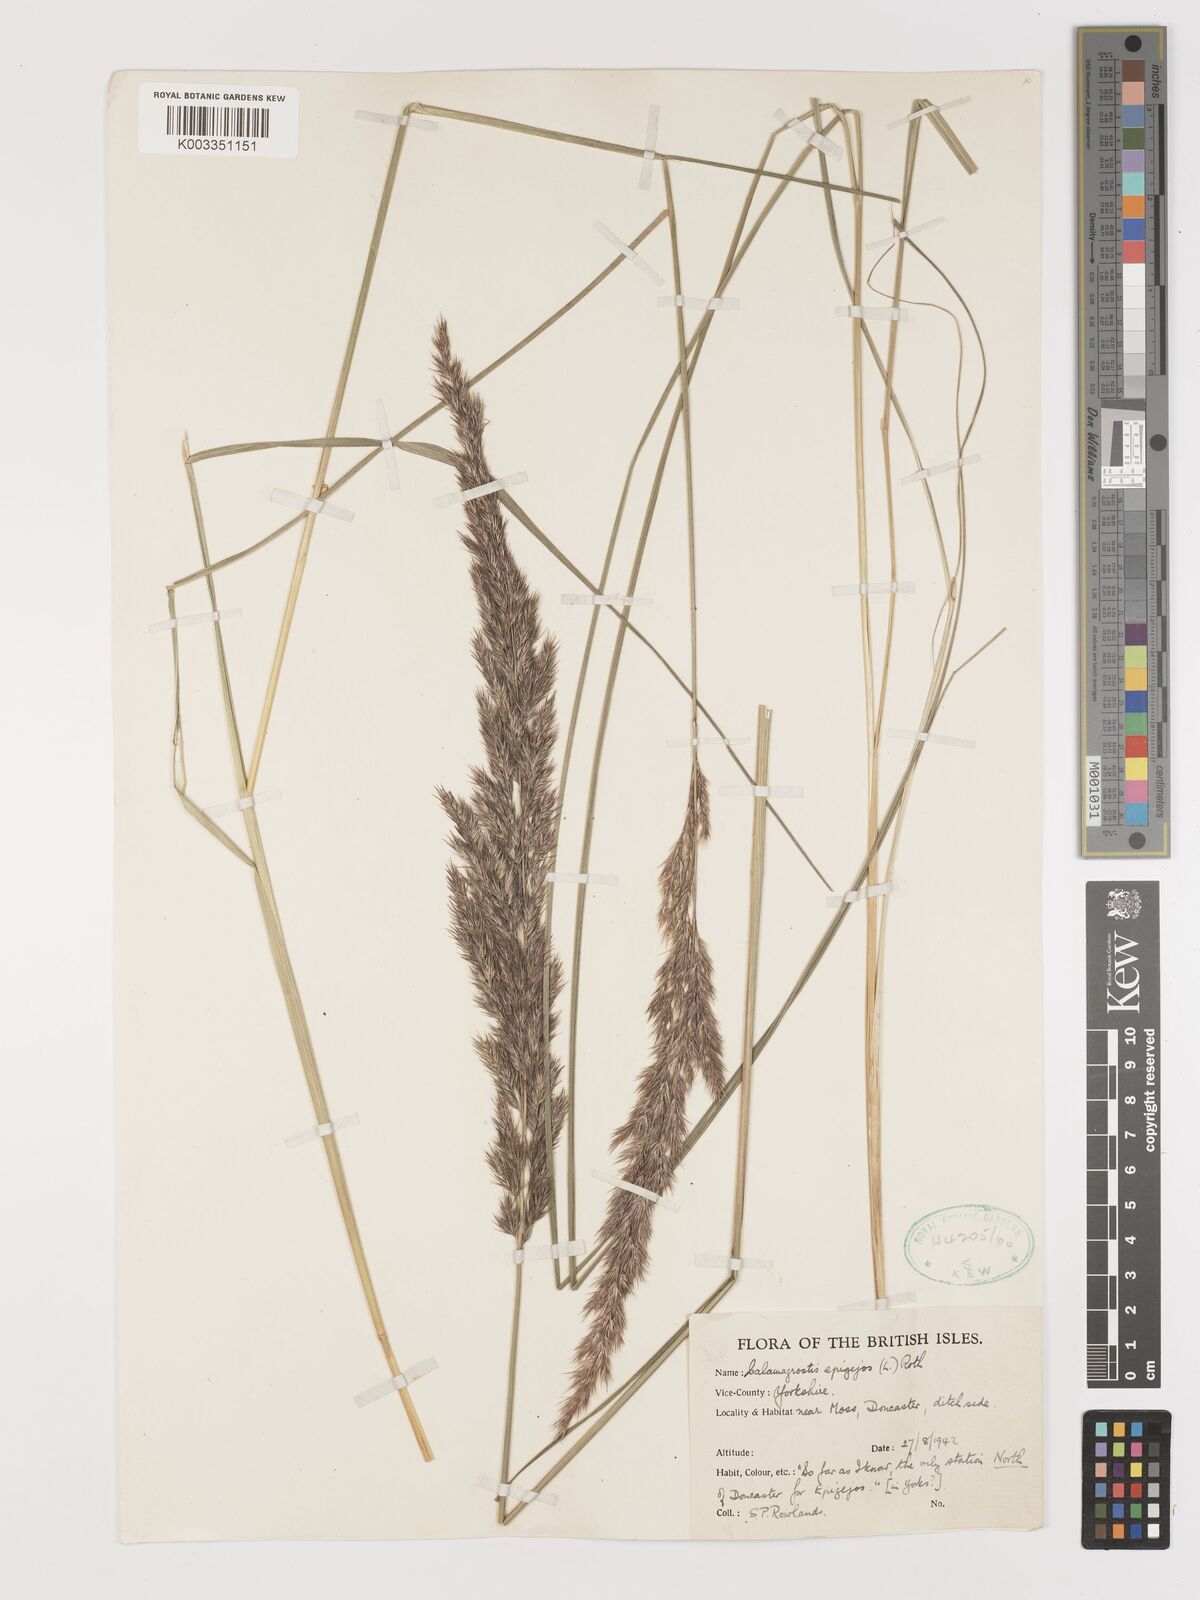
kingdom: Plantae
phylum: Tracheophyta
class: Liliopsida
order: Poales
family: Poaceae
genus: Calamagrostis
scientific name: Calamagrostis
